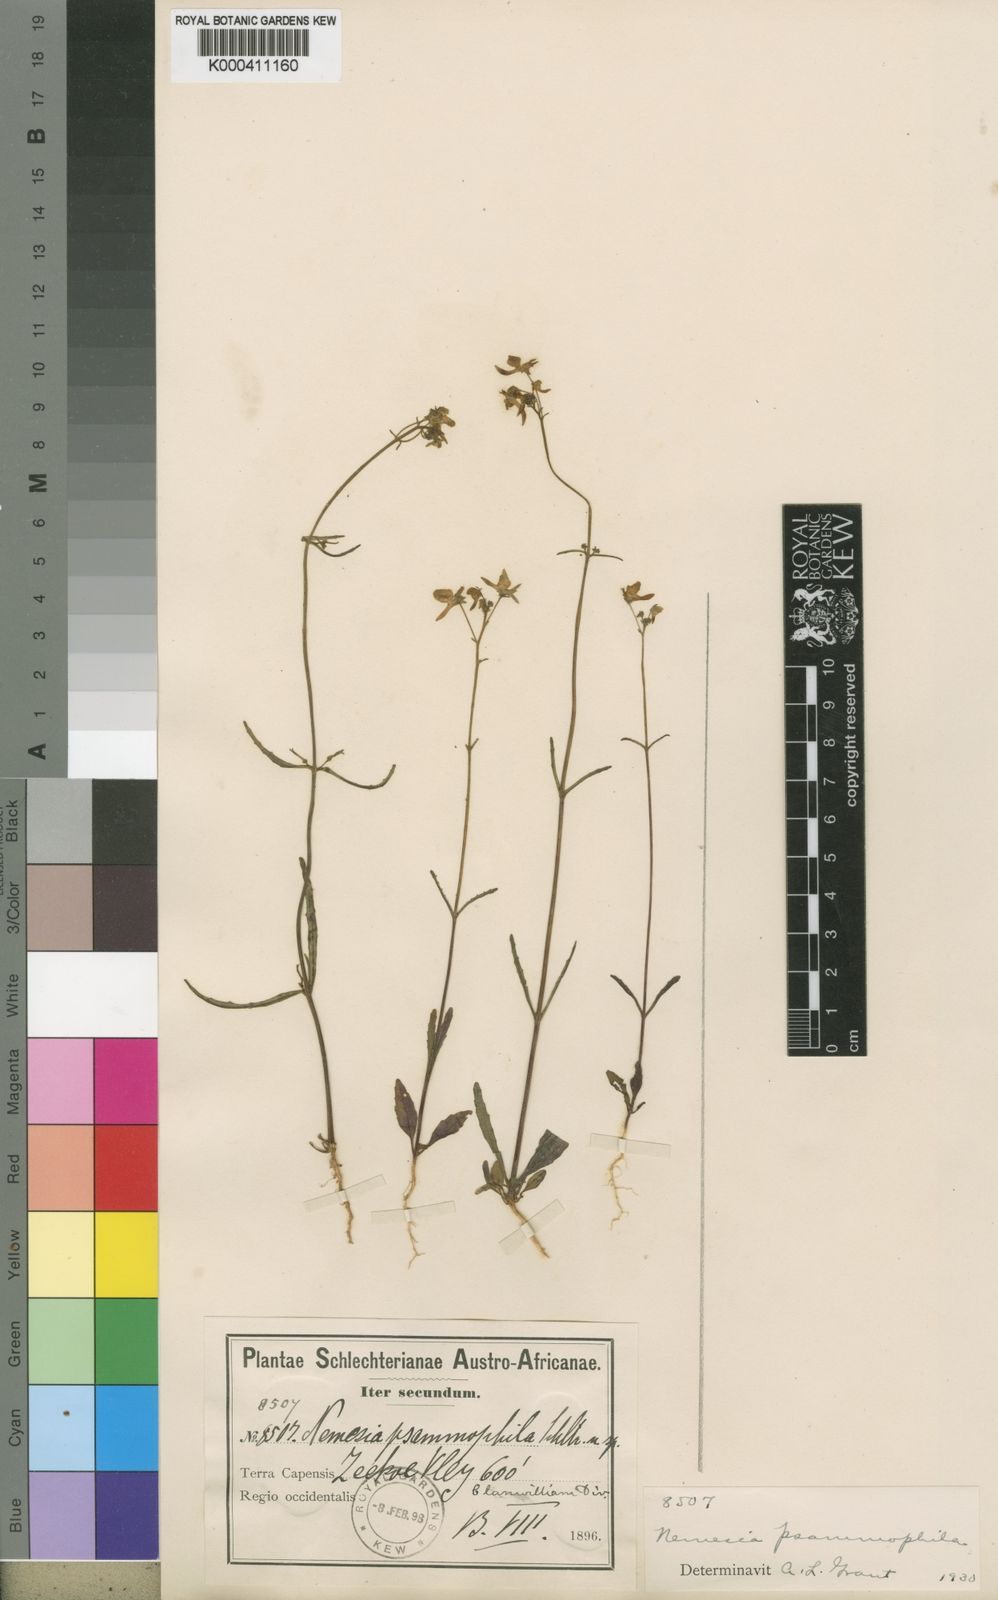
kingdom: Plantae
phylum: Tracheophyta
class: Magnoliopsida
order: Lamiales
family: Scrophulariaceae
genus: Nemesia
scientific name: Nemesia psammophila
